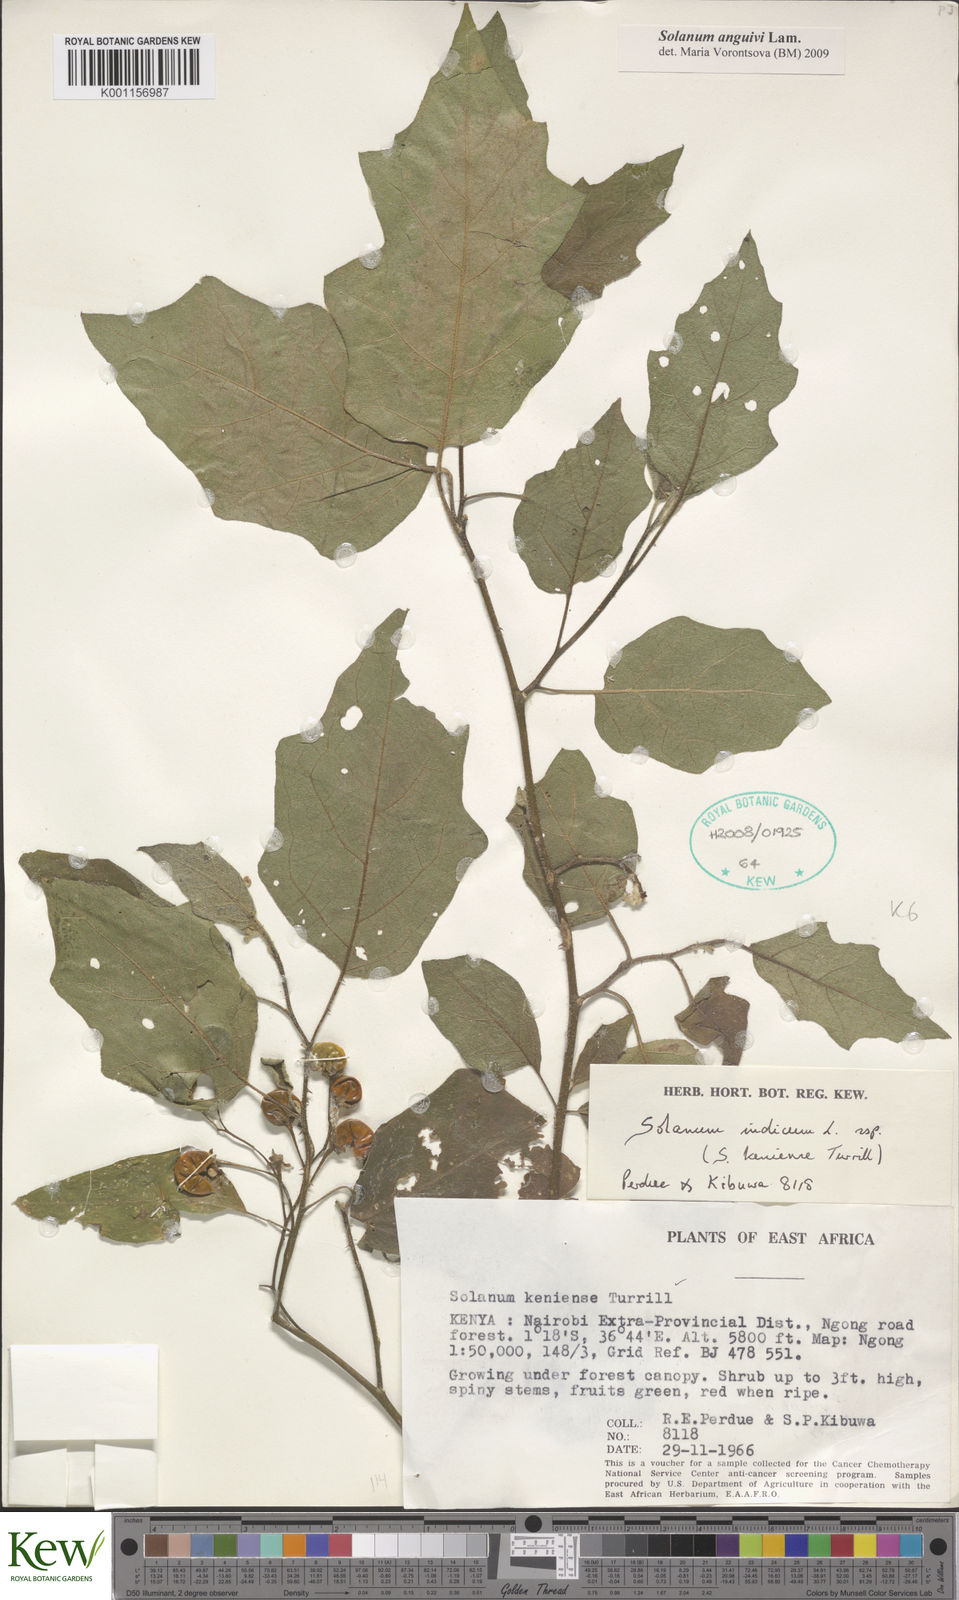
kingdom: Plantae
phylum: Tracheophyta
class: Magnoliopsida
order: Solanales
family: Solanaceae
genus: Solanum
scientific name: Solanum anguivi
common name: Forest bitterberry
